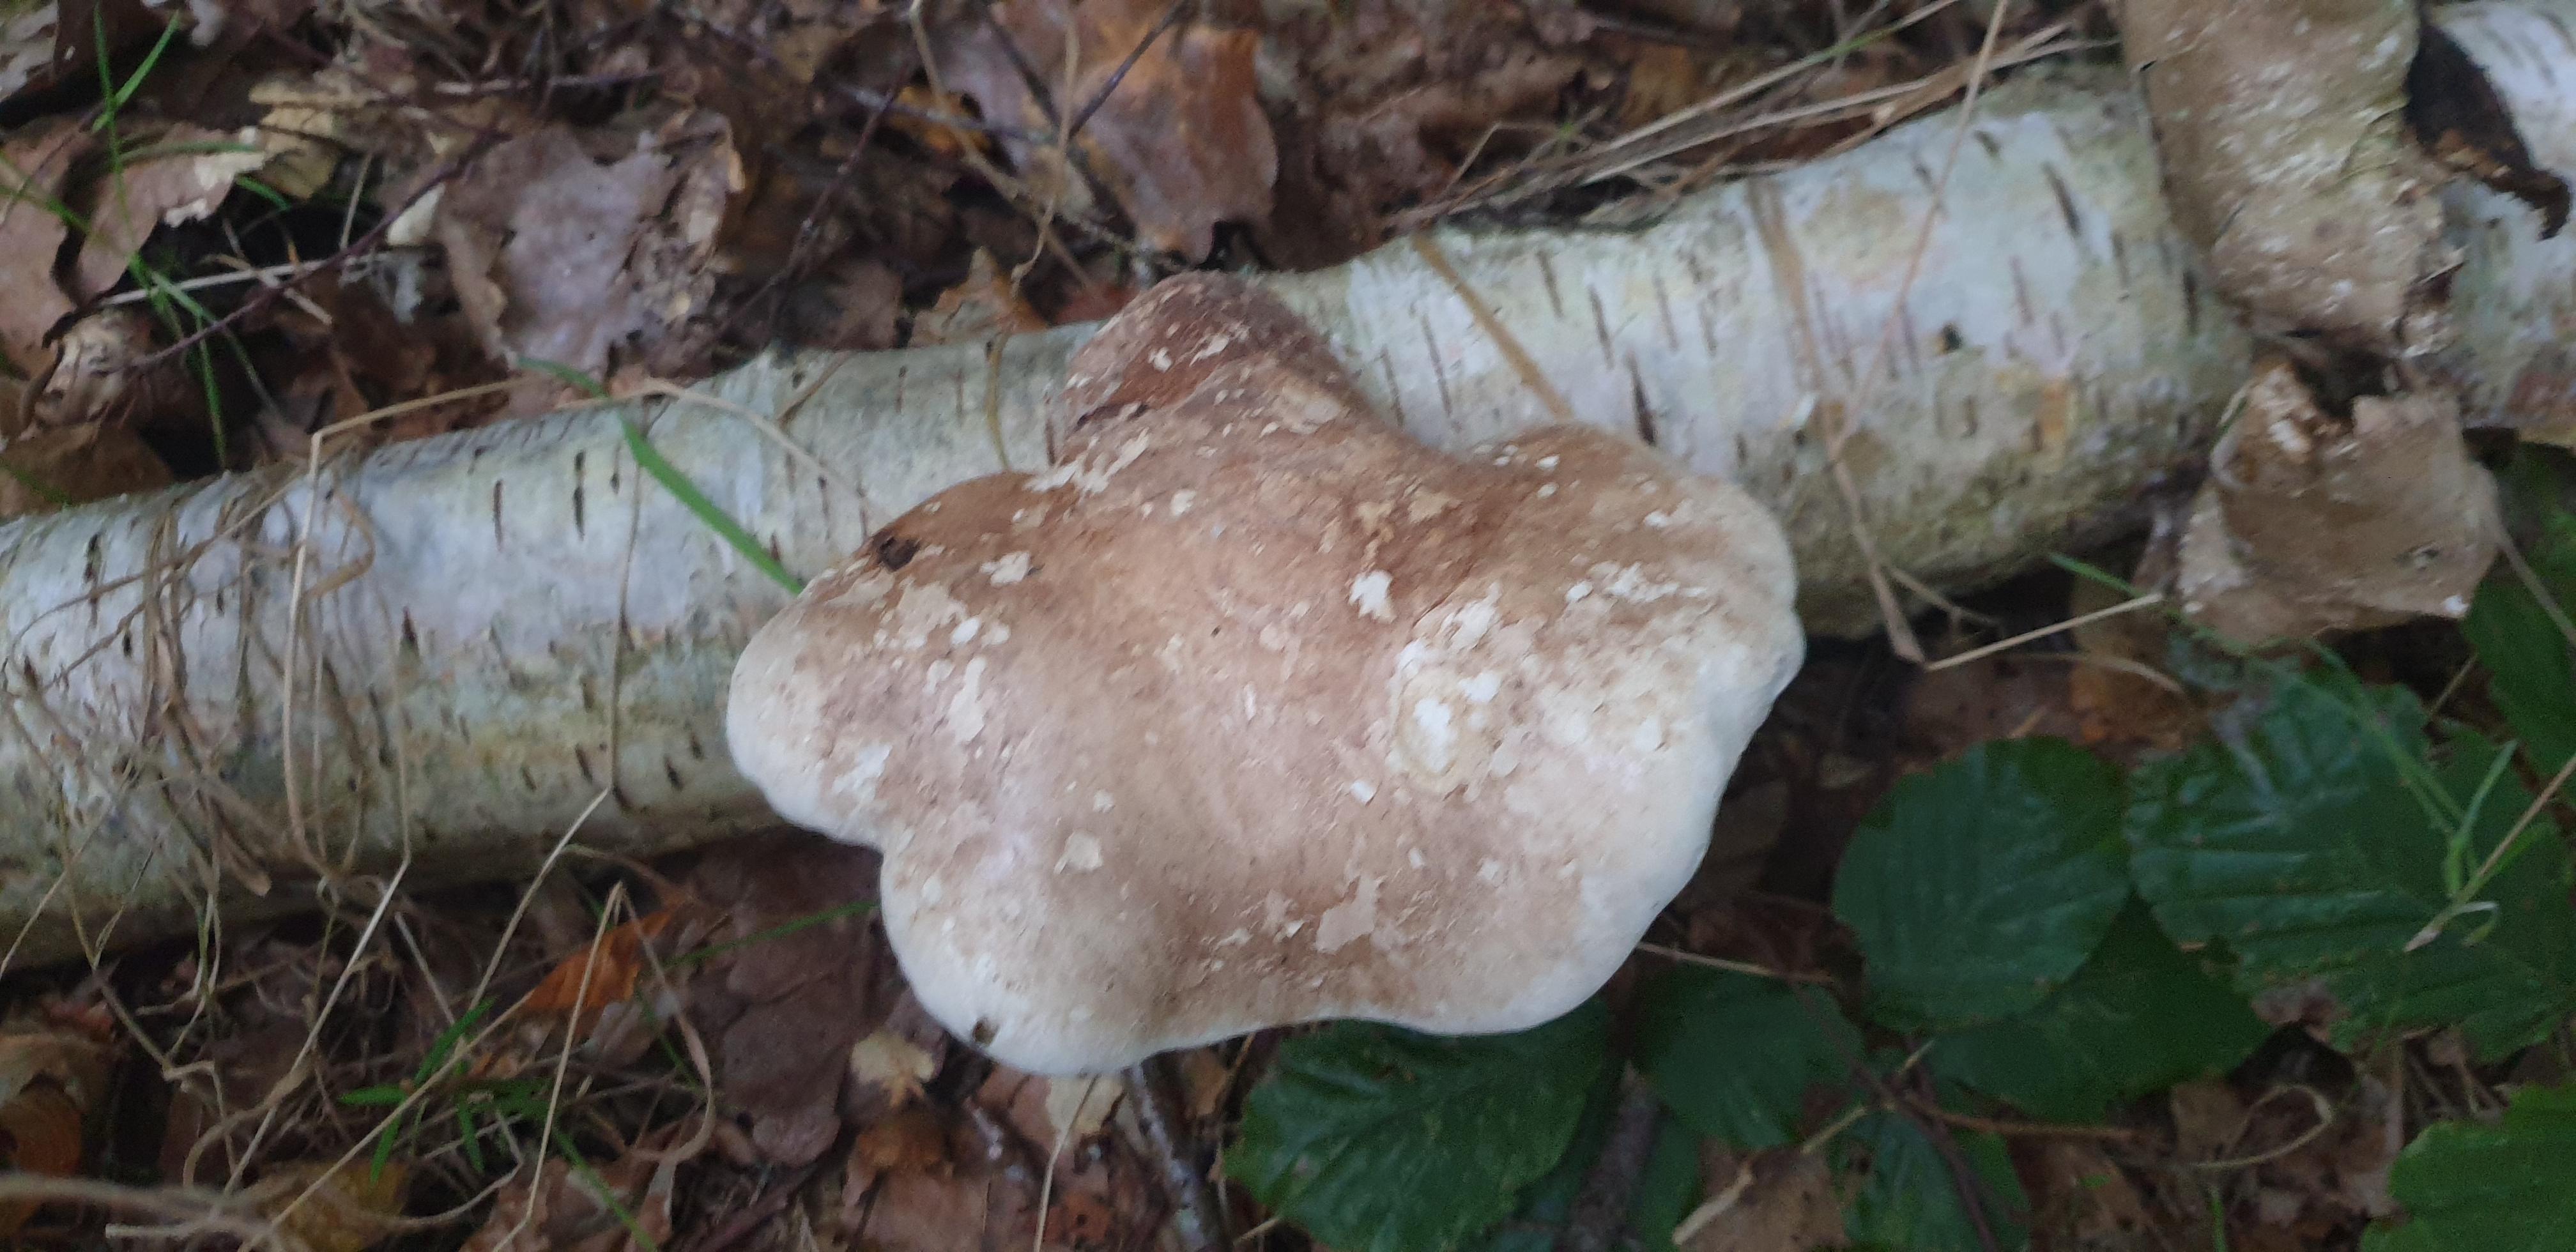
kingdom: Fungi
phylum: Basidiomycota
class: Agaricomycetes
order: Polyporales
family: Fomitopsidaceae
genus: Fomitopsis
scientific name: Fomitopsis betulina
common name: birkeporesvamp
